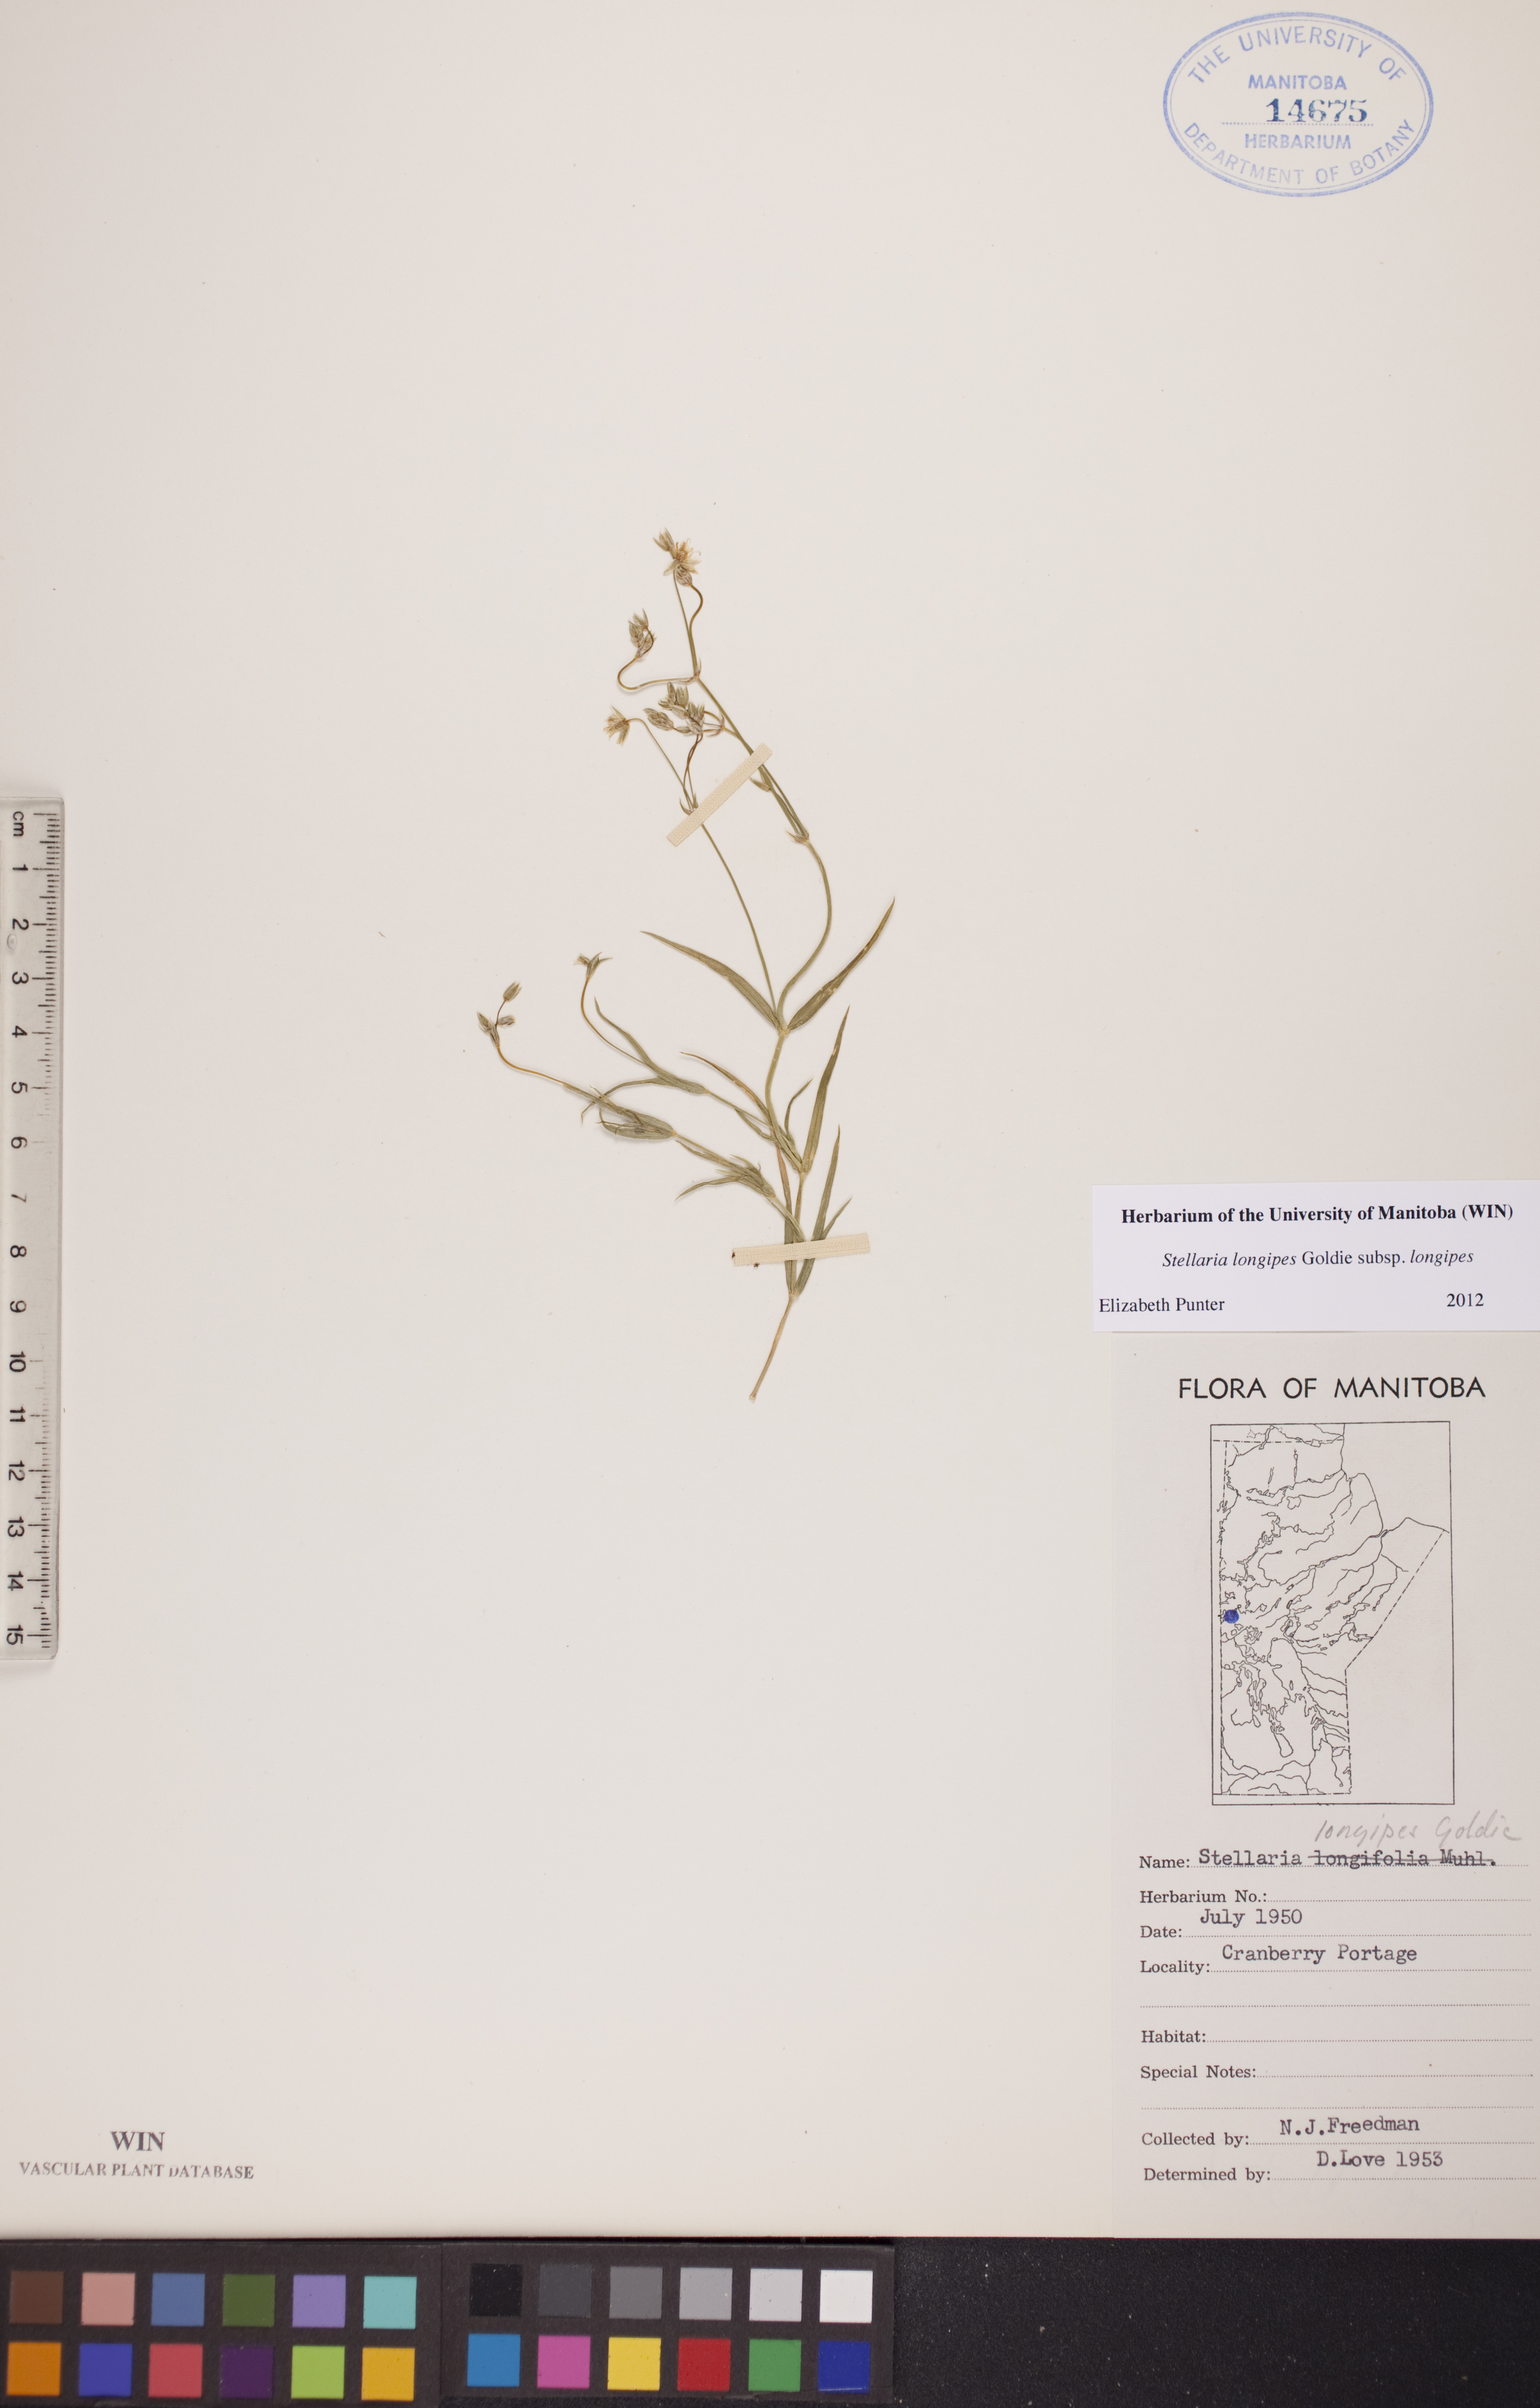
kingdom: Plantae
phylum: Tracheophyta
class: Magnoliopsida
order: Caryophyllales
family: Caryophyllaceae
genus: Stellaria
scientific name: Stellaria longipes
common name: Goldie's starwort
